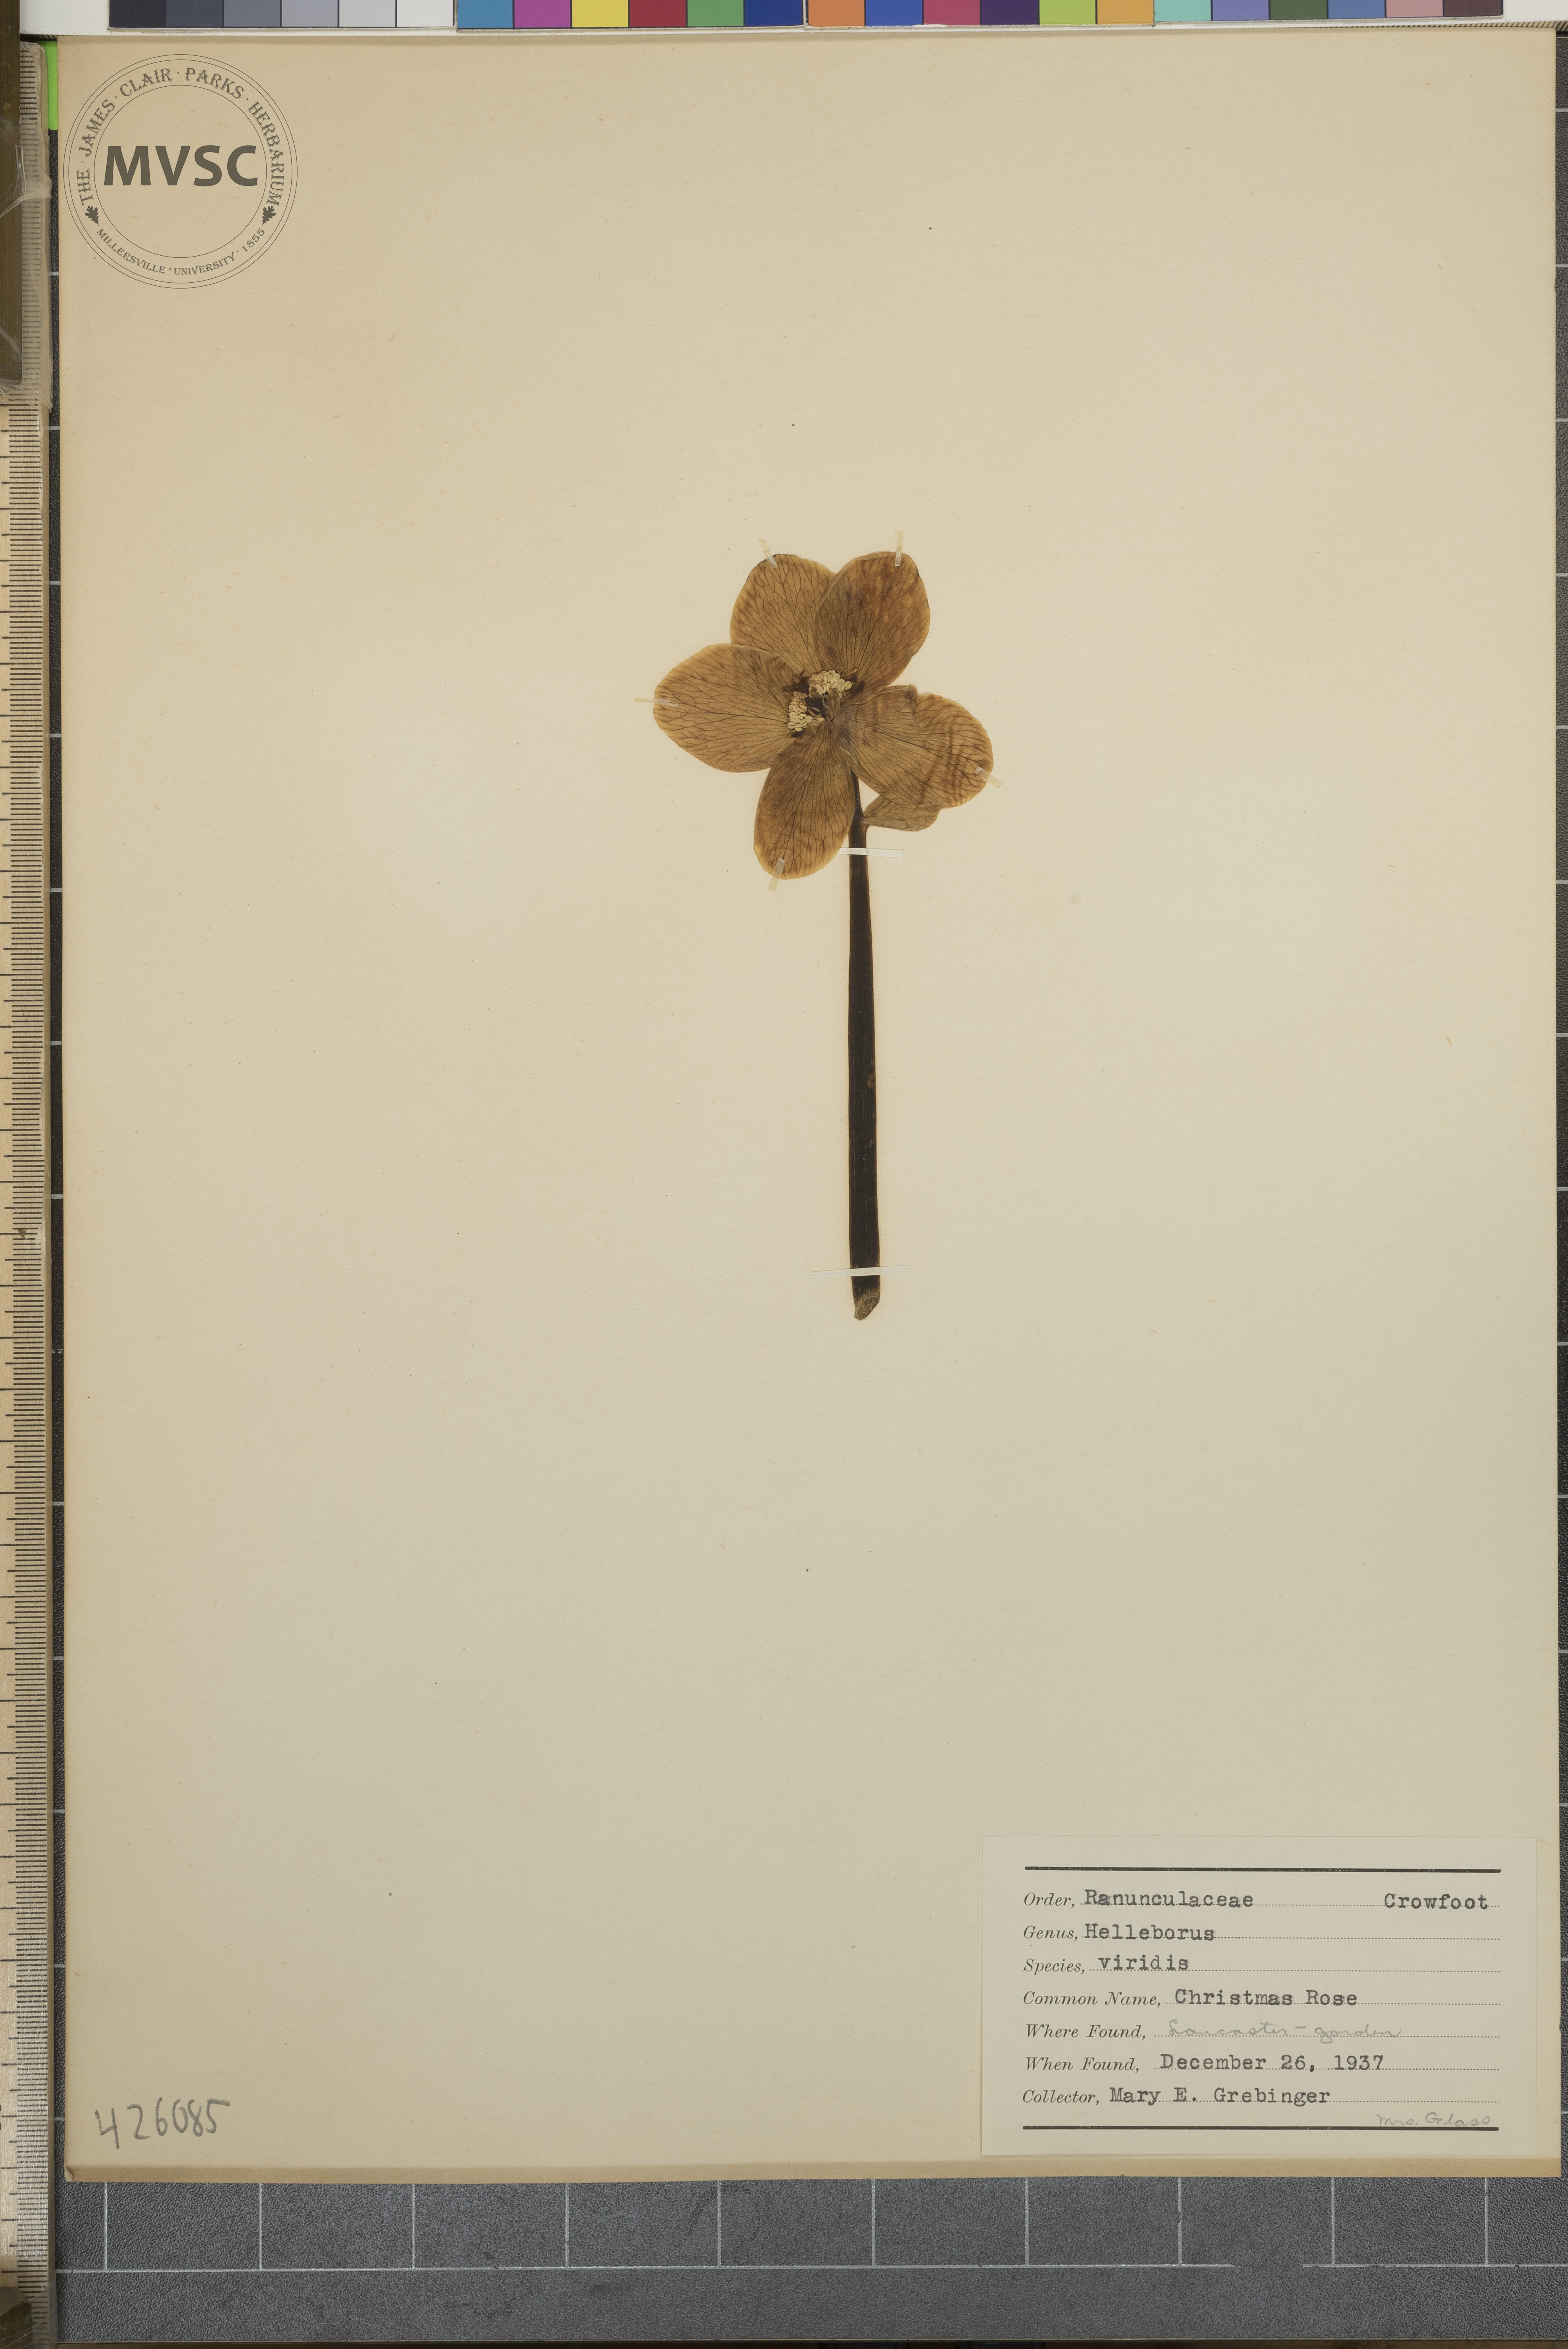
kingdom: Plantae
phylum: Tracheophyta
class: Magnoliopsida
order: Ranunculales
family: Ranunculaceae
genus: Helleborus
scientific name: Helleborus viridis
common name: Christmas rose
